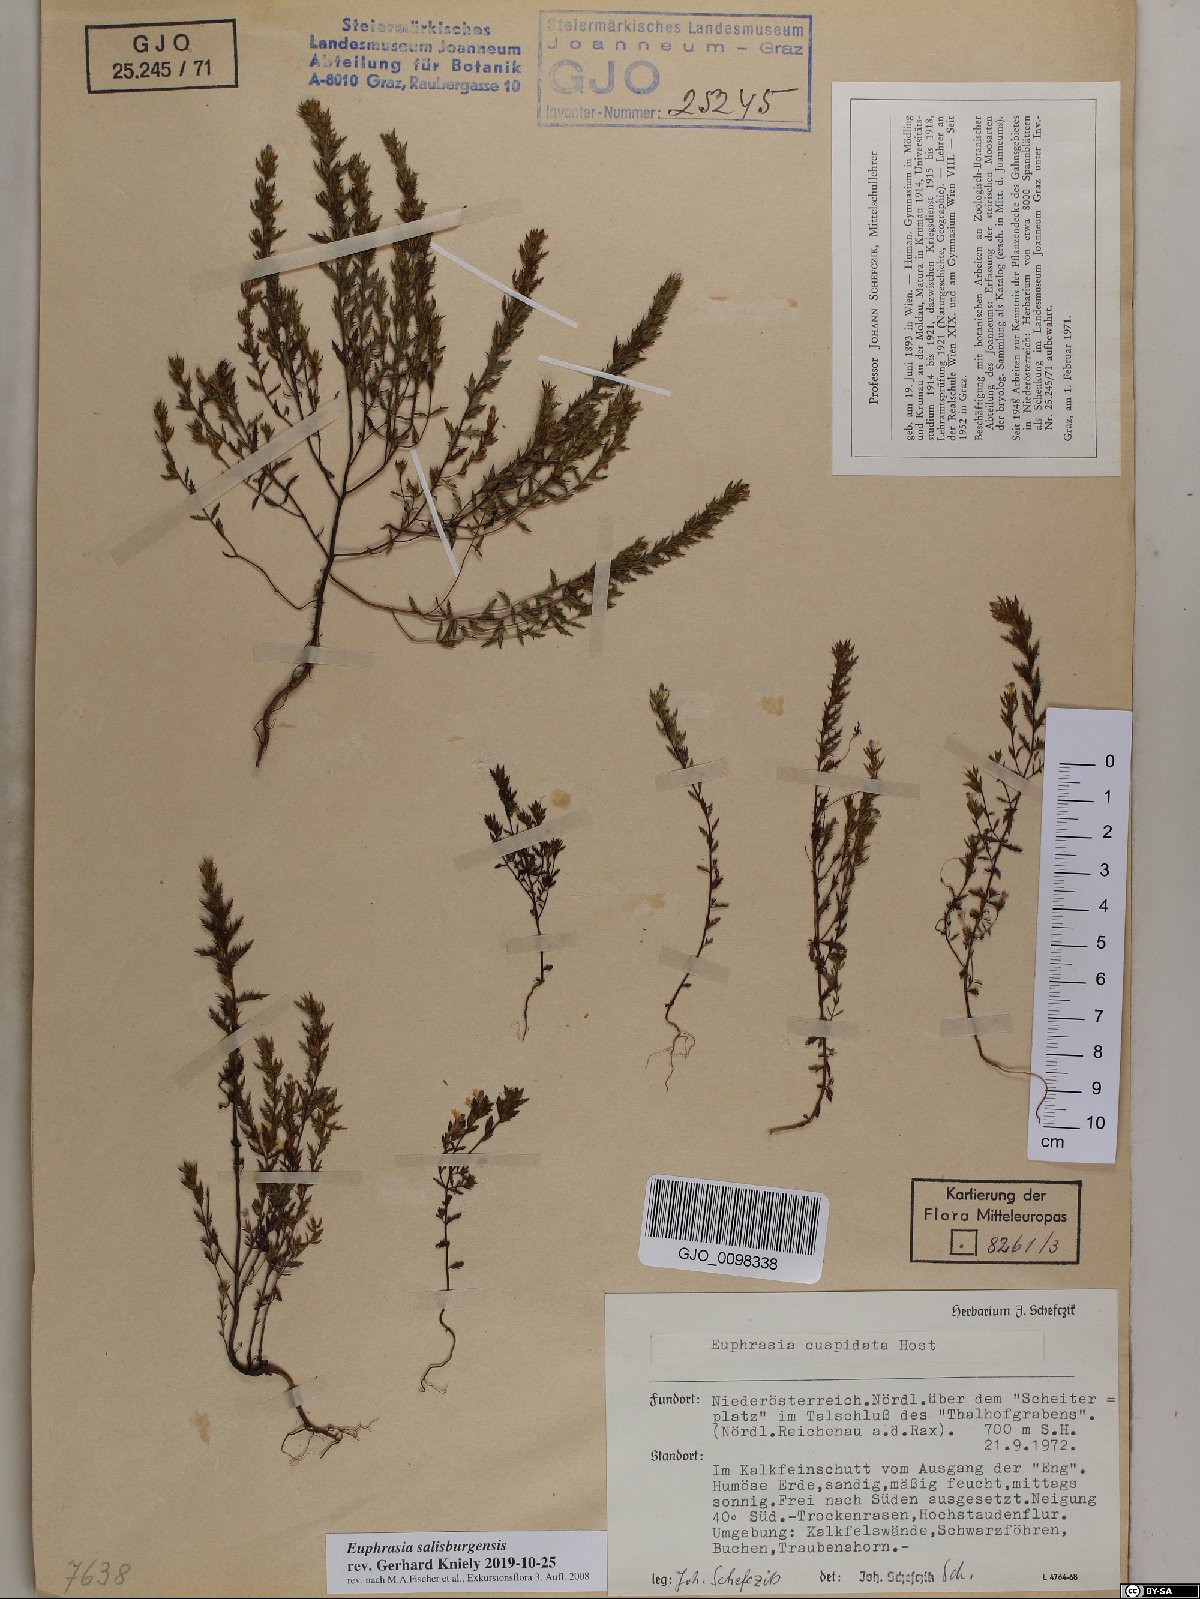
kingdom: Plantae
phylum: Tracheophyta
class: Magnoliopsida
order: Lamiales
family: Orobanchaceae
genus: Euphrasia
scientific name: Euphrasia salisburgensis
